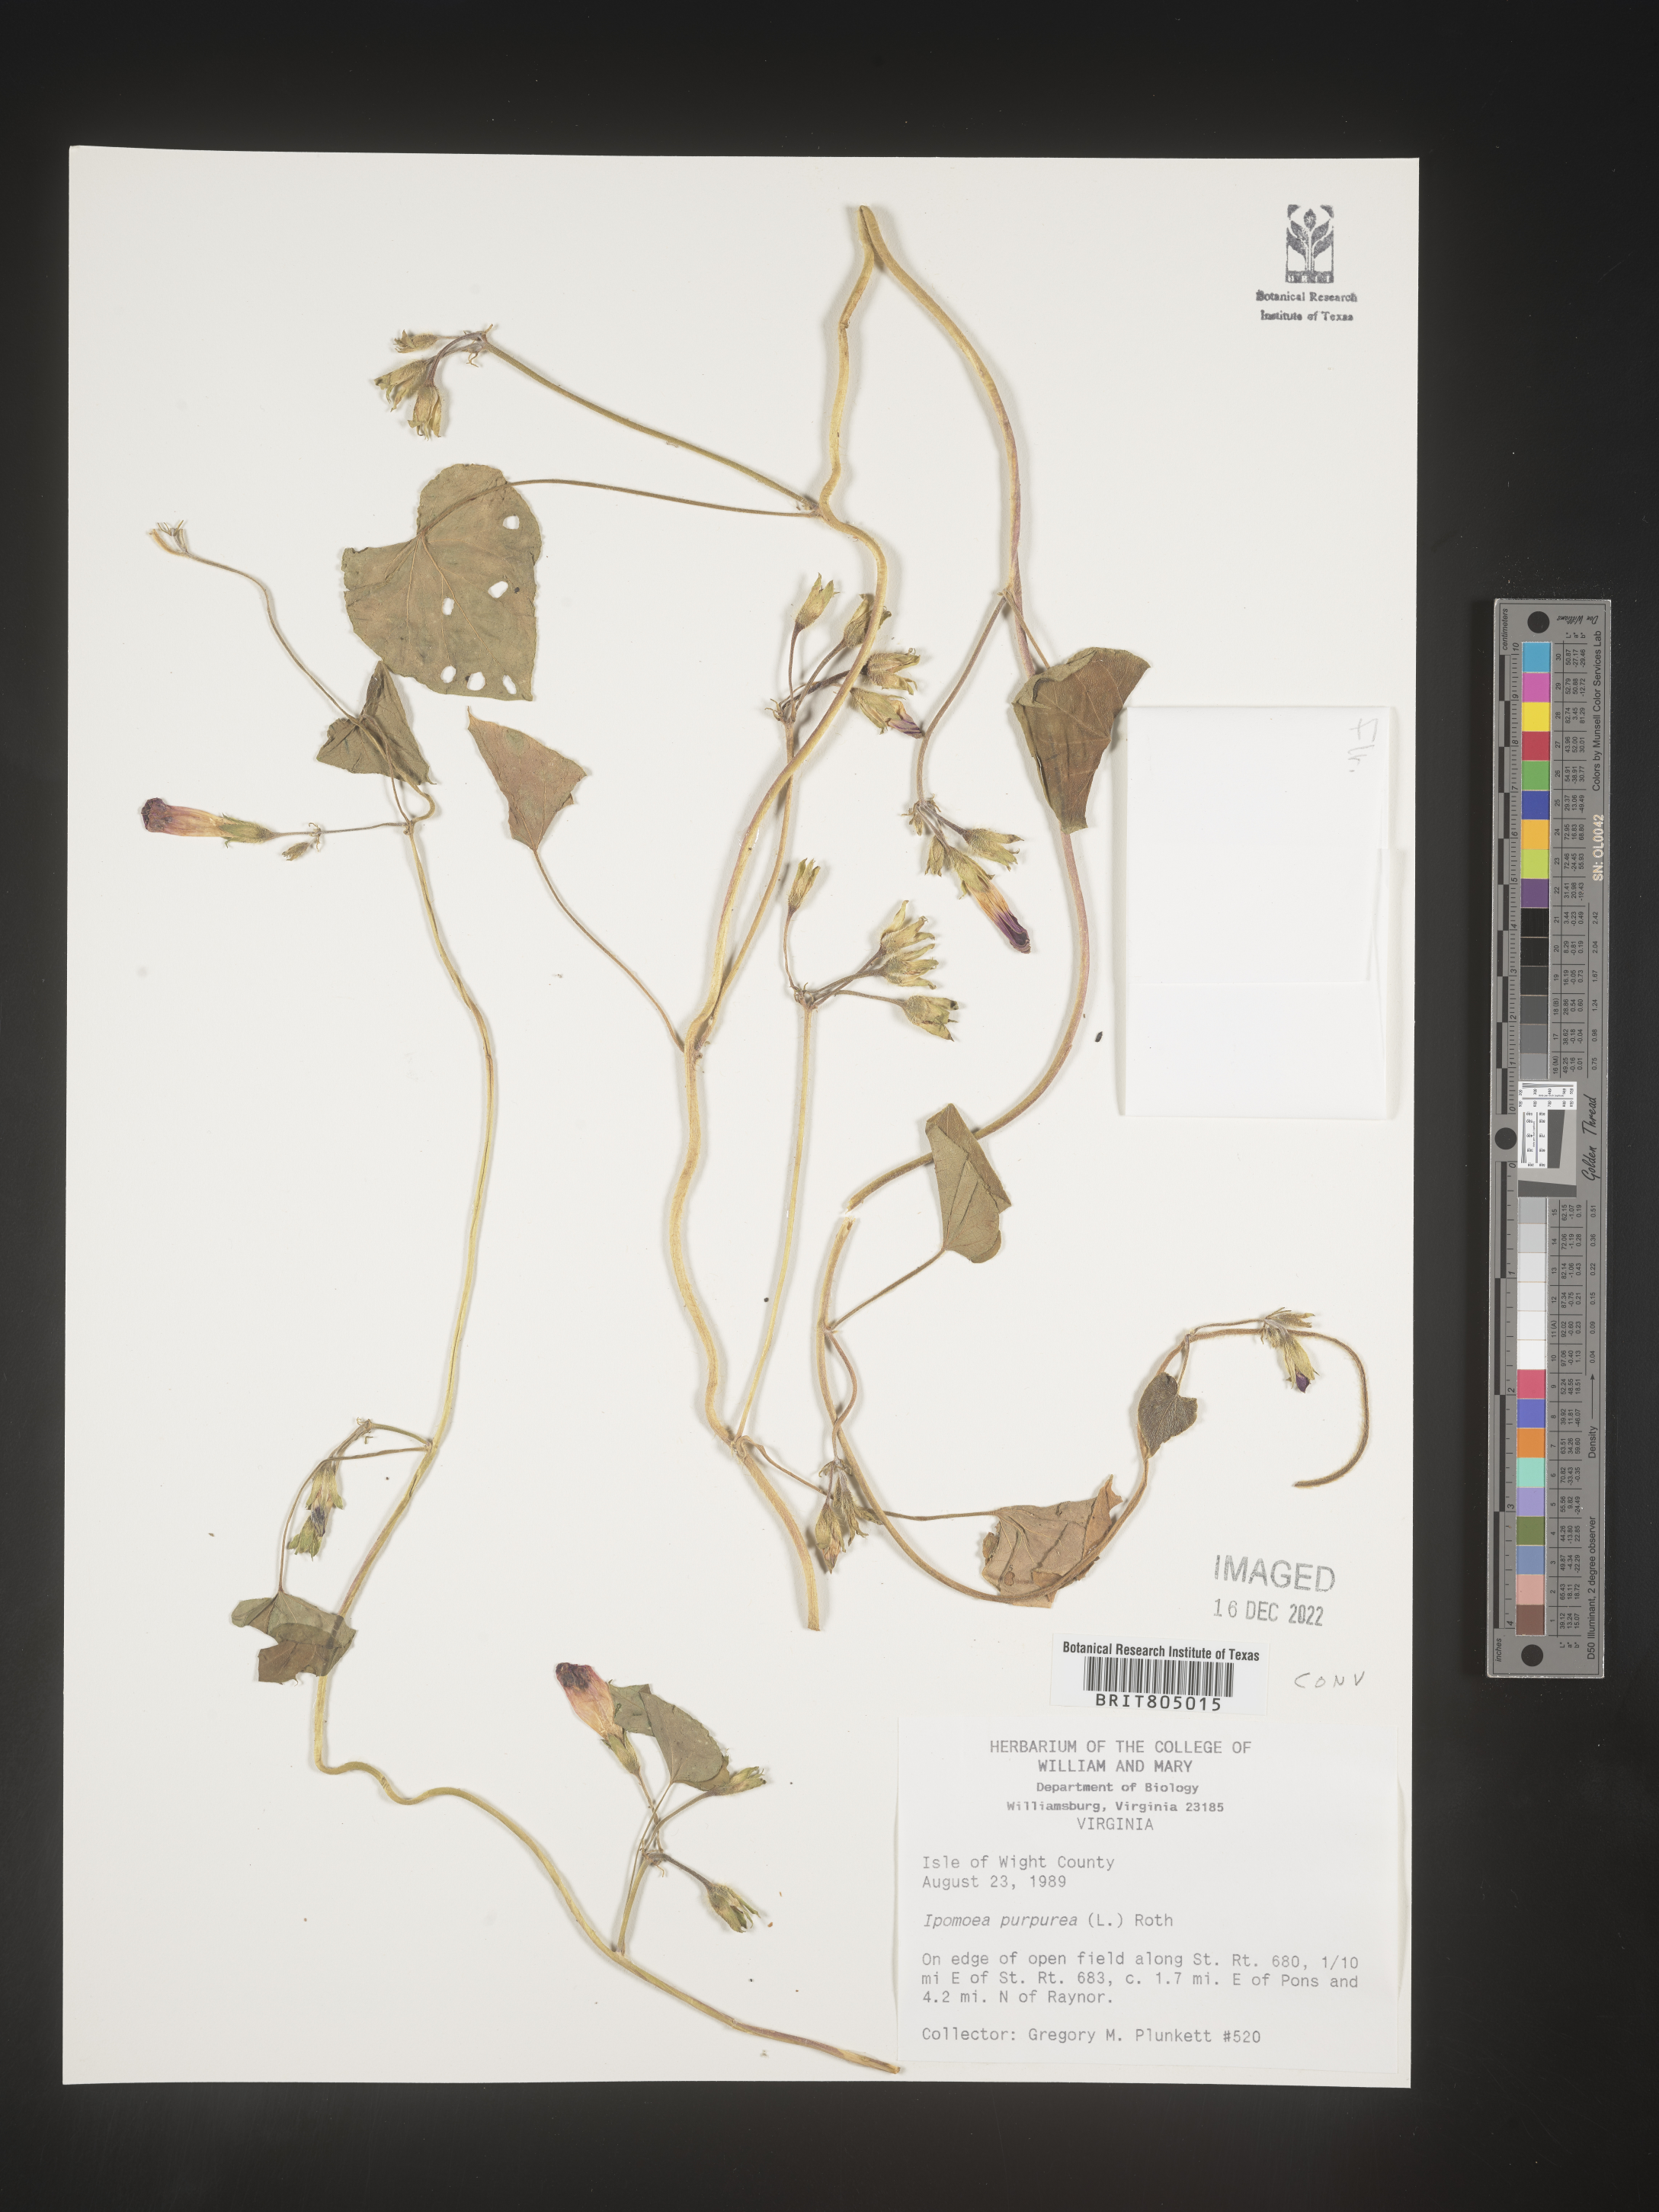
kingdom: Plantae
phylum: Tracheophyta
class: Magnoliopsida
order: Solanales
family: Convolvulaceae
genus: Ipomoea
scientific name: Ipomoea purpurea
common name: Common morning-glory
